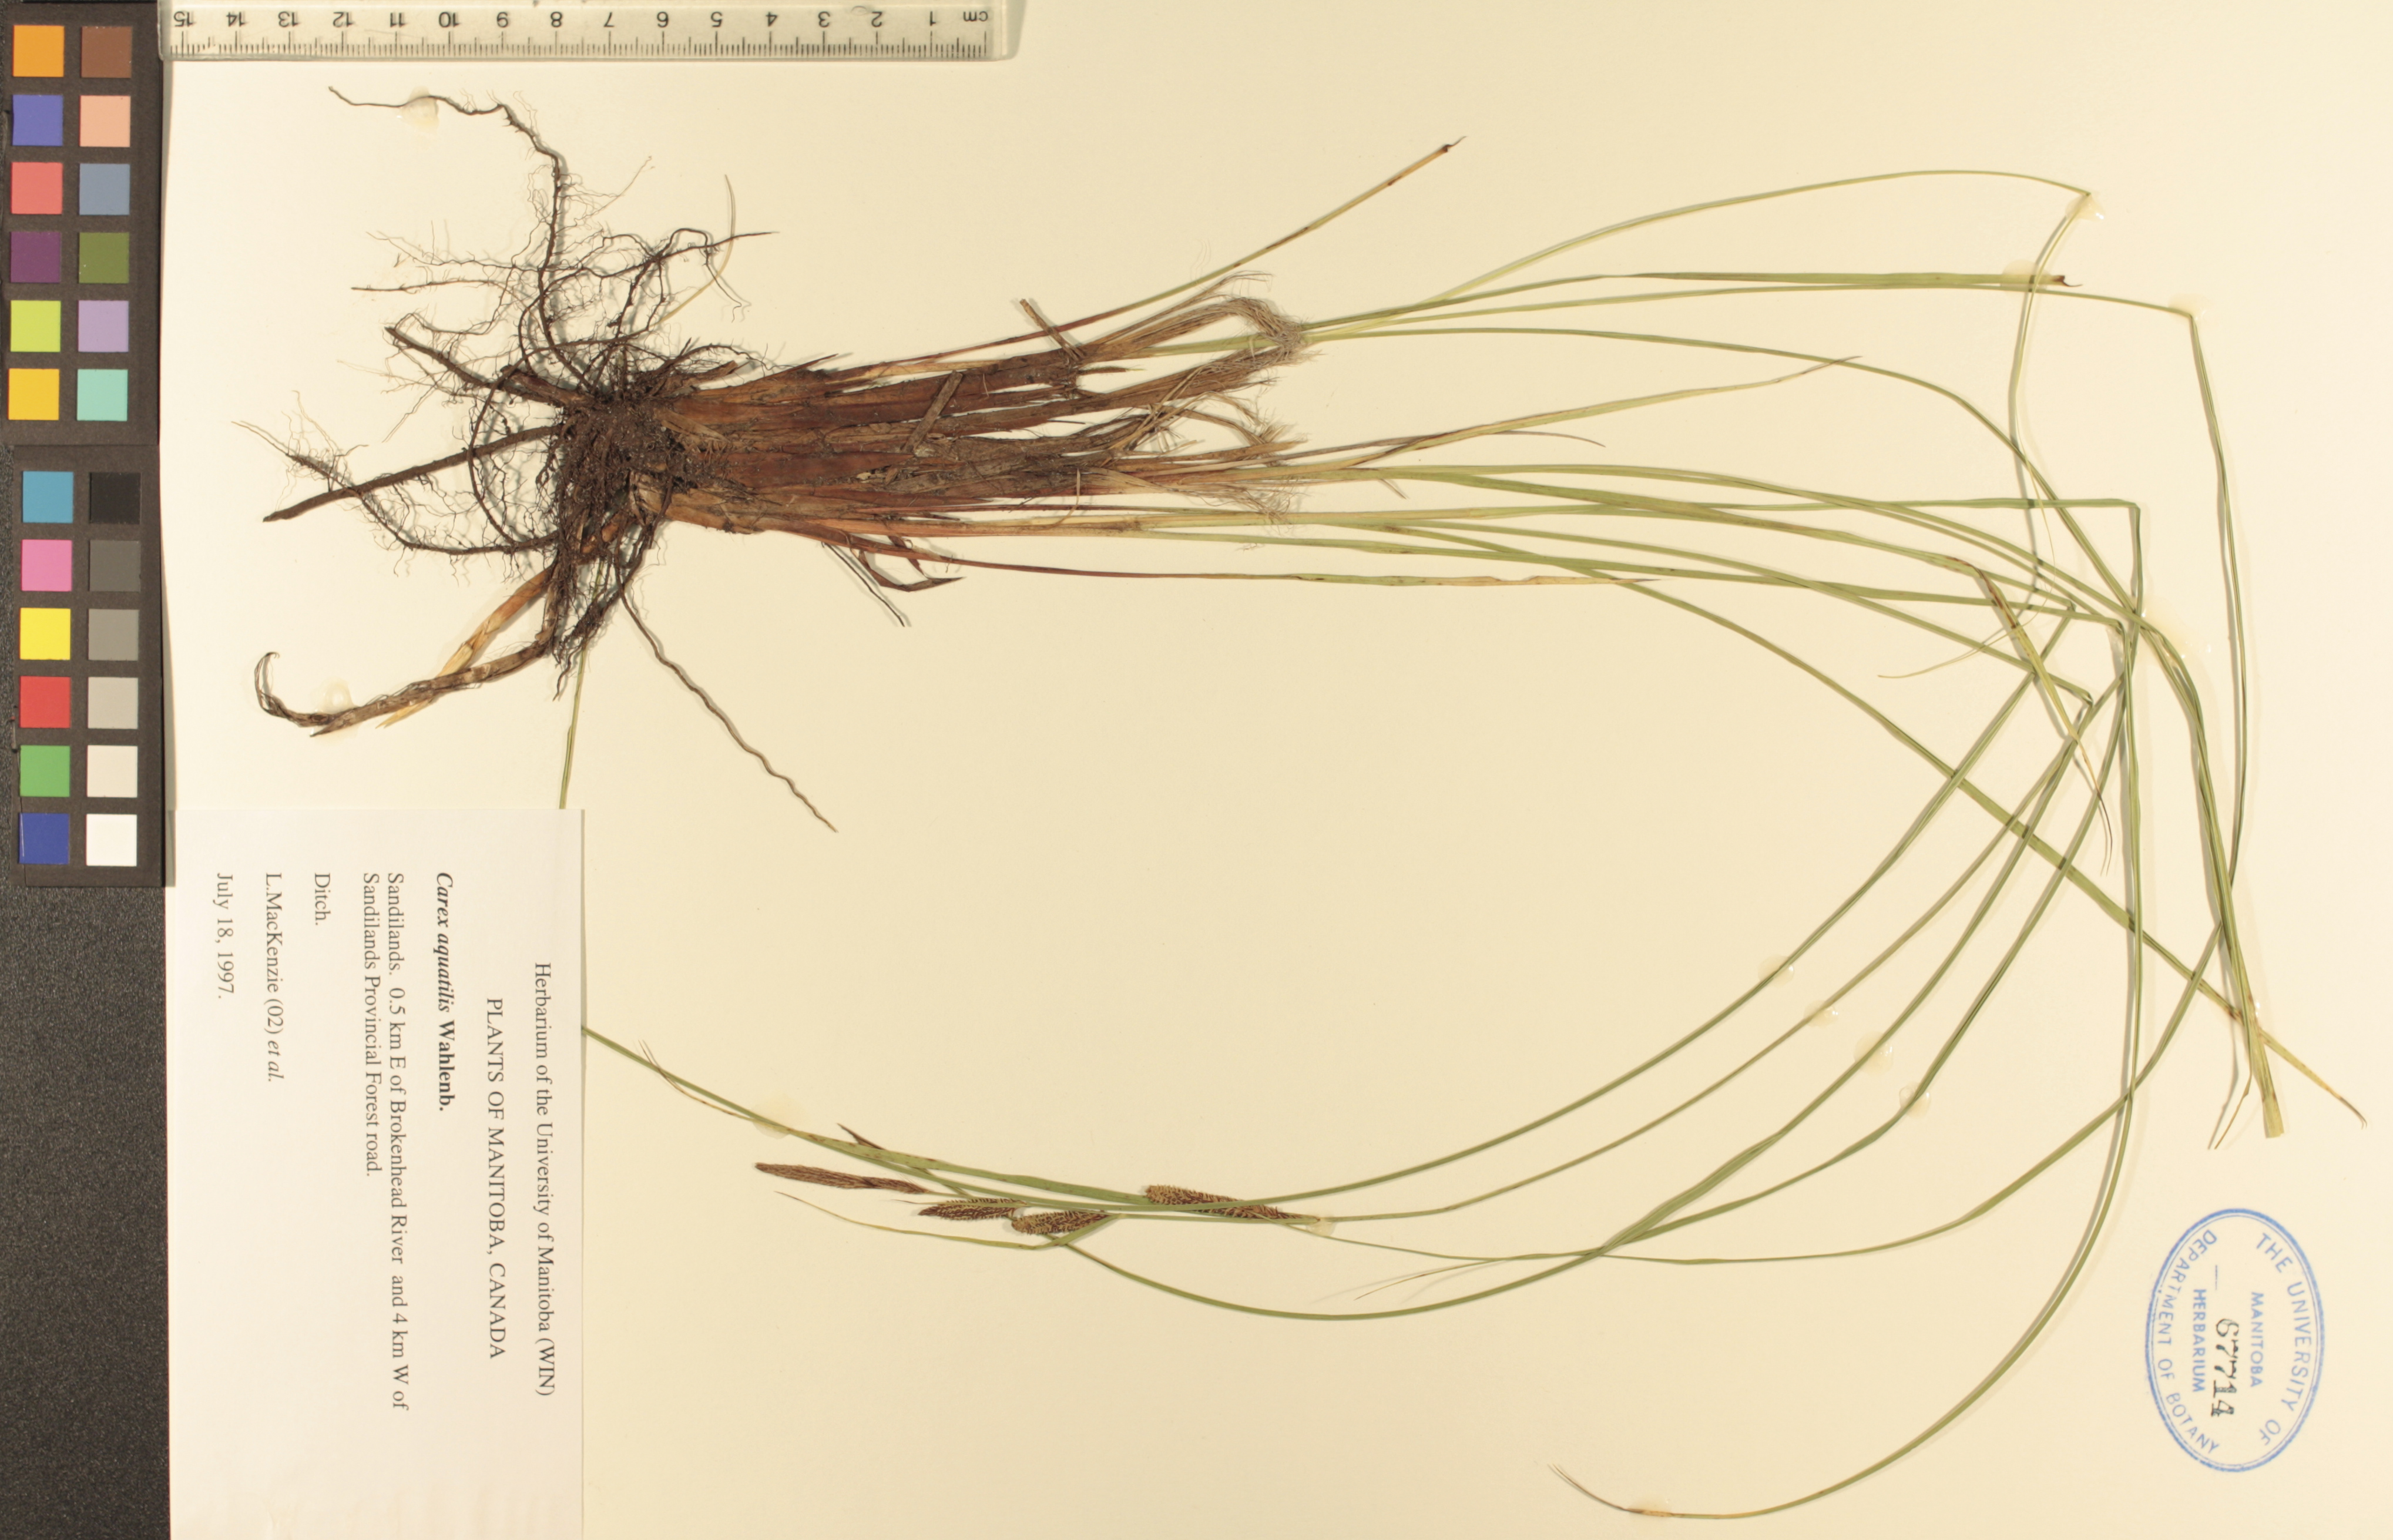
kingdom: Plantae
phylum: Tracheophyta
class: Liliopsida
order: Poales
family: Cyperaceae
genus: Carex
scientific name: Carex aquatilis
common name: Water sedge
